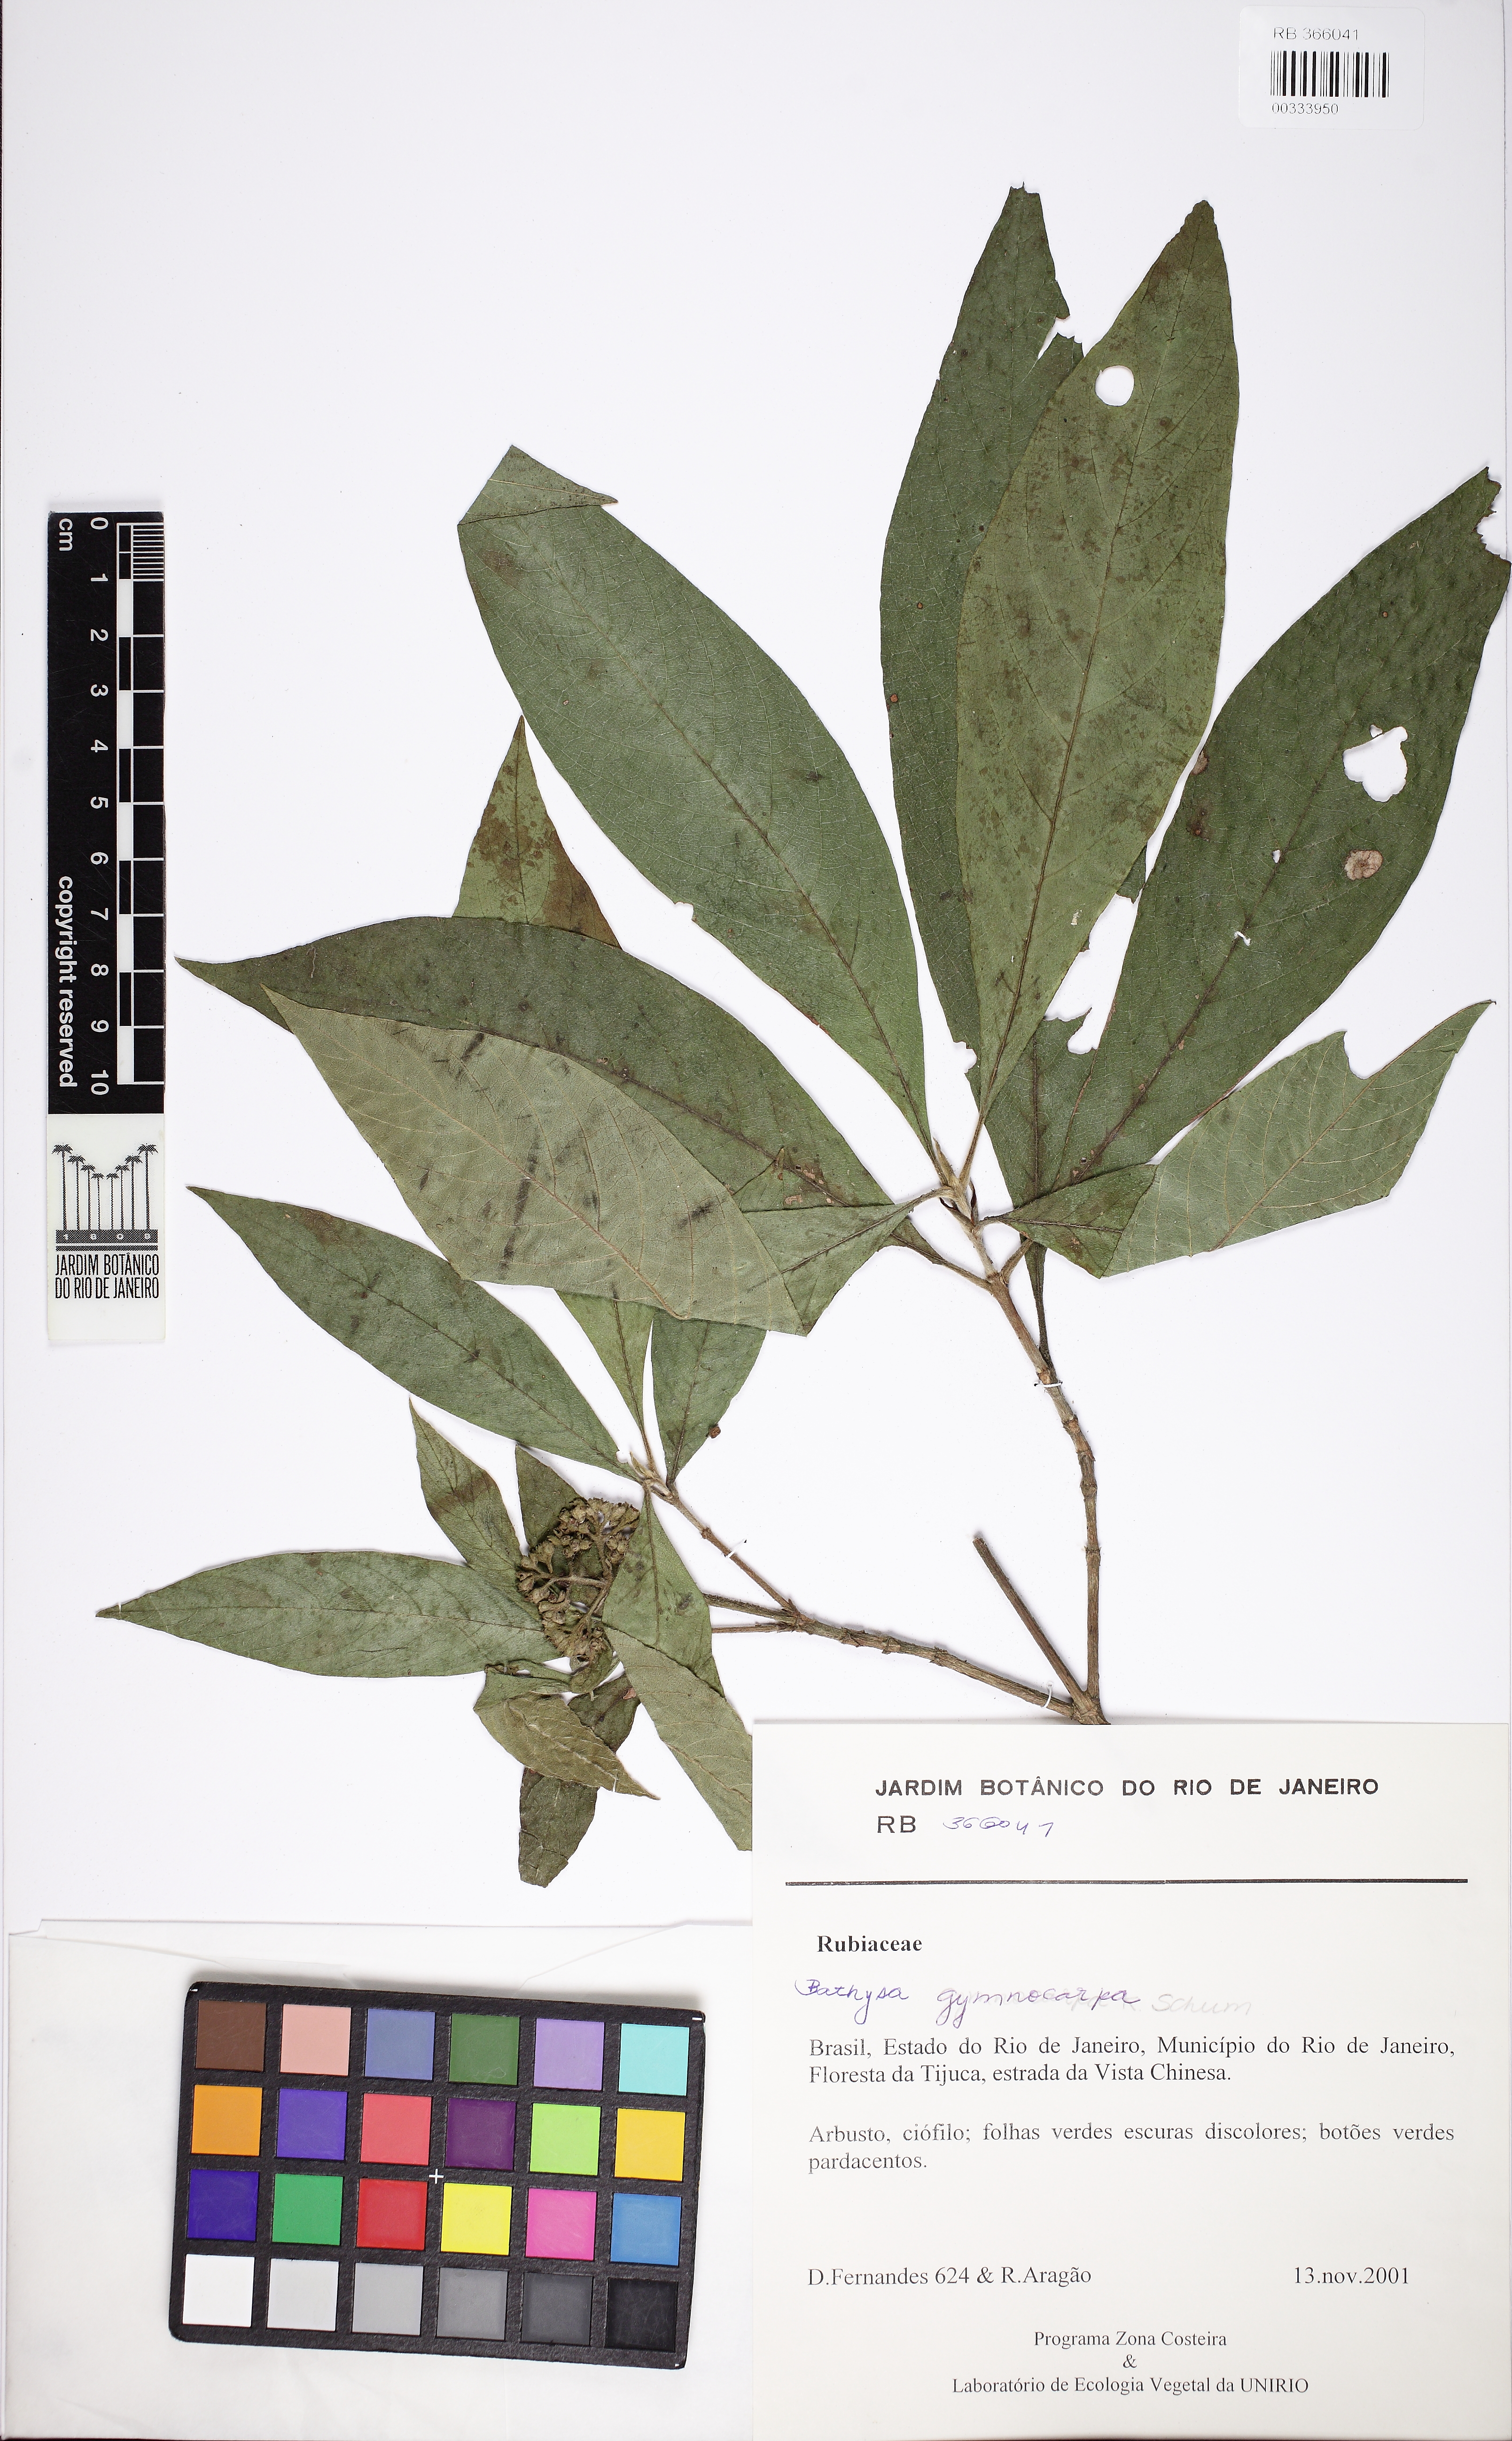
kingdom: Plantae
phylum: Tracheophyta
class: Magnoliopsida
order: Gentianales
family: Rubiaceae
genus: Bathysa
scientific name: Bathysa gymnocarpa
